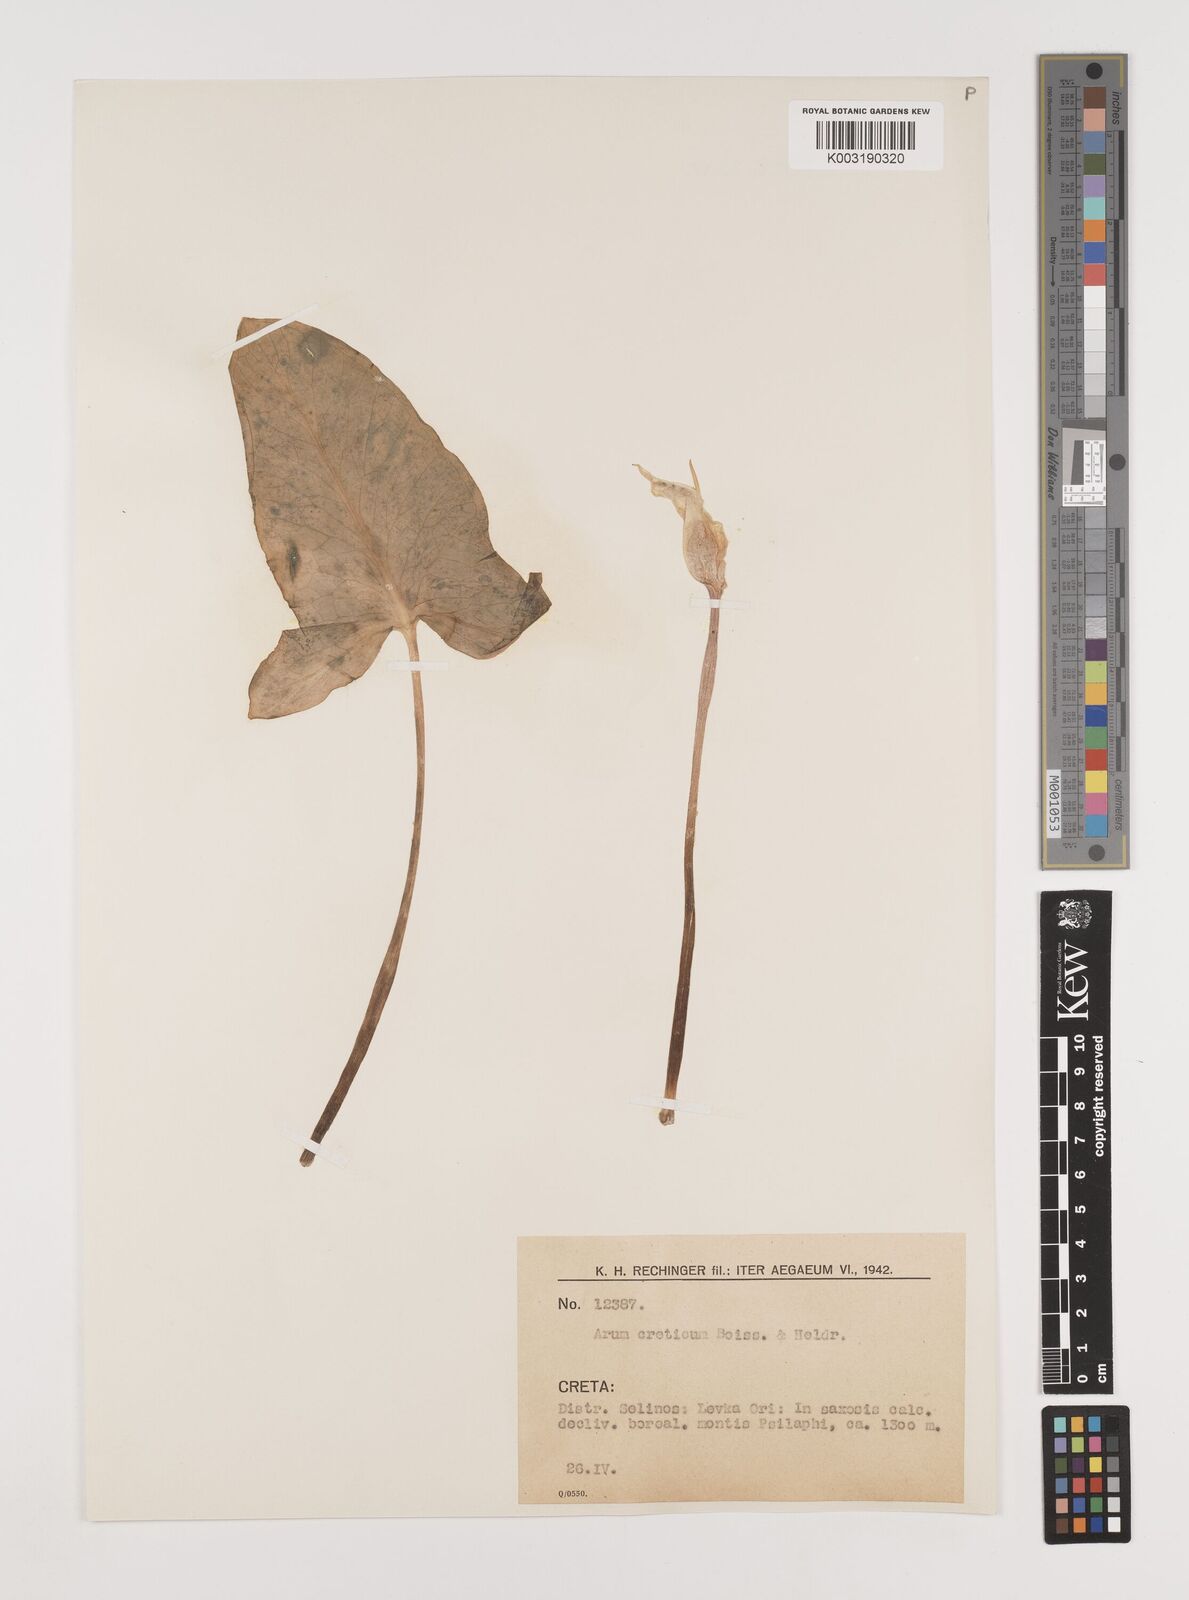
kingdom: Plantae
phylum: Tracheophyta
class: Liliopsida
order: Alismatales
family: Araceae
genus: Arum
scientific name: Arum creticum
